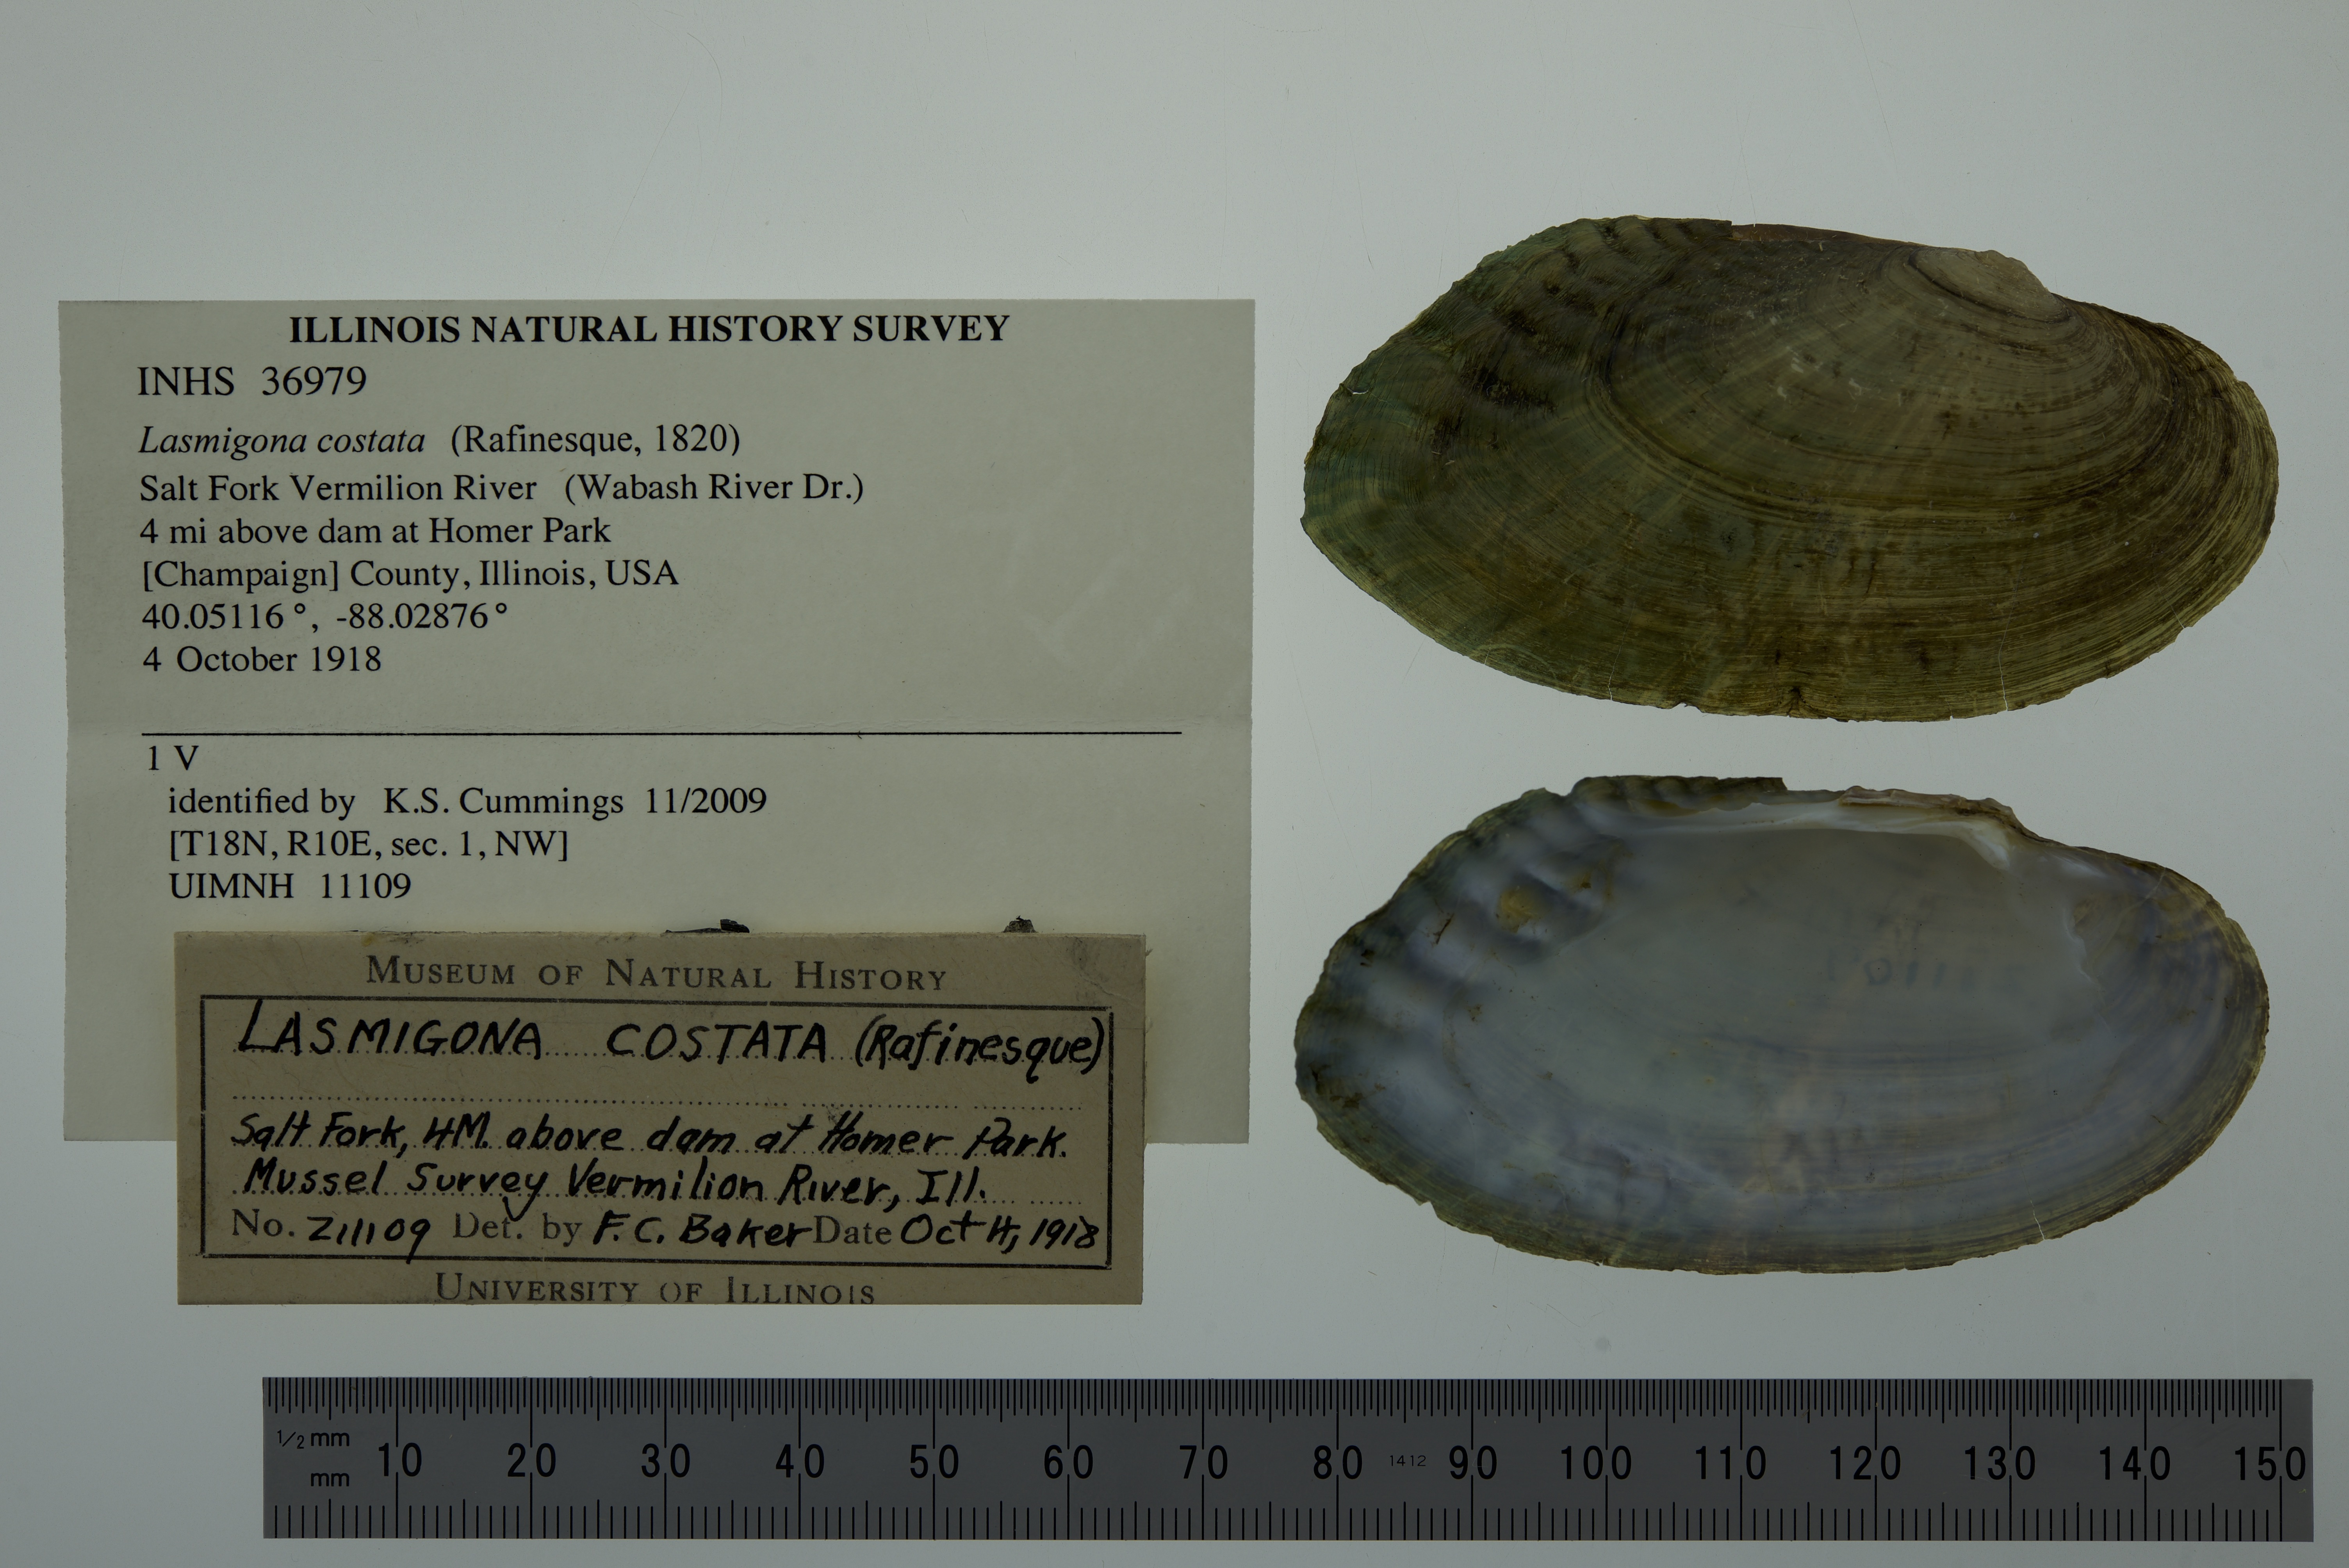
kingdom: Animalia
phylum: Mollusca
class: Bivalvia
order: Unionida
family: Unionidae
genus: Lasmigona
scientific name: Lasmigona costata
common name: Flutedshell
